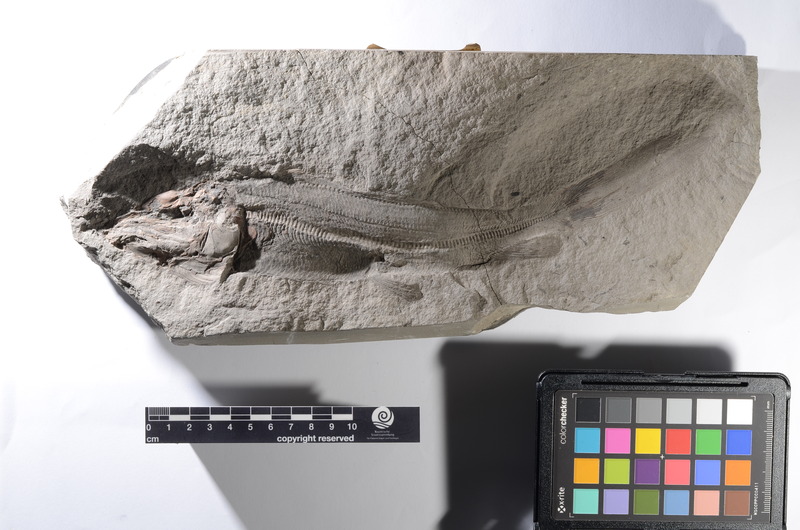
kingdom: Animalia
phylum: Chordata
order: Albuliformes
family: Albulidae
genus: Istieus
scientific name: Istieus gracilis
